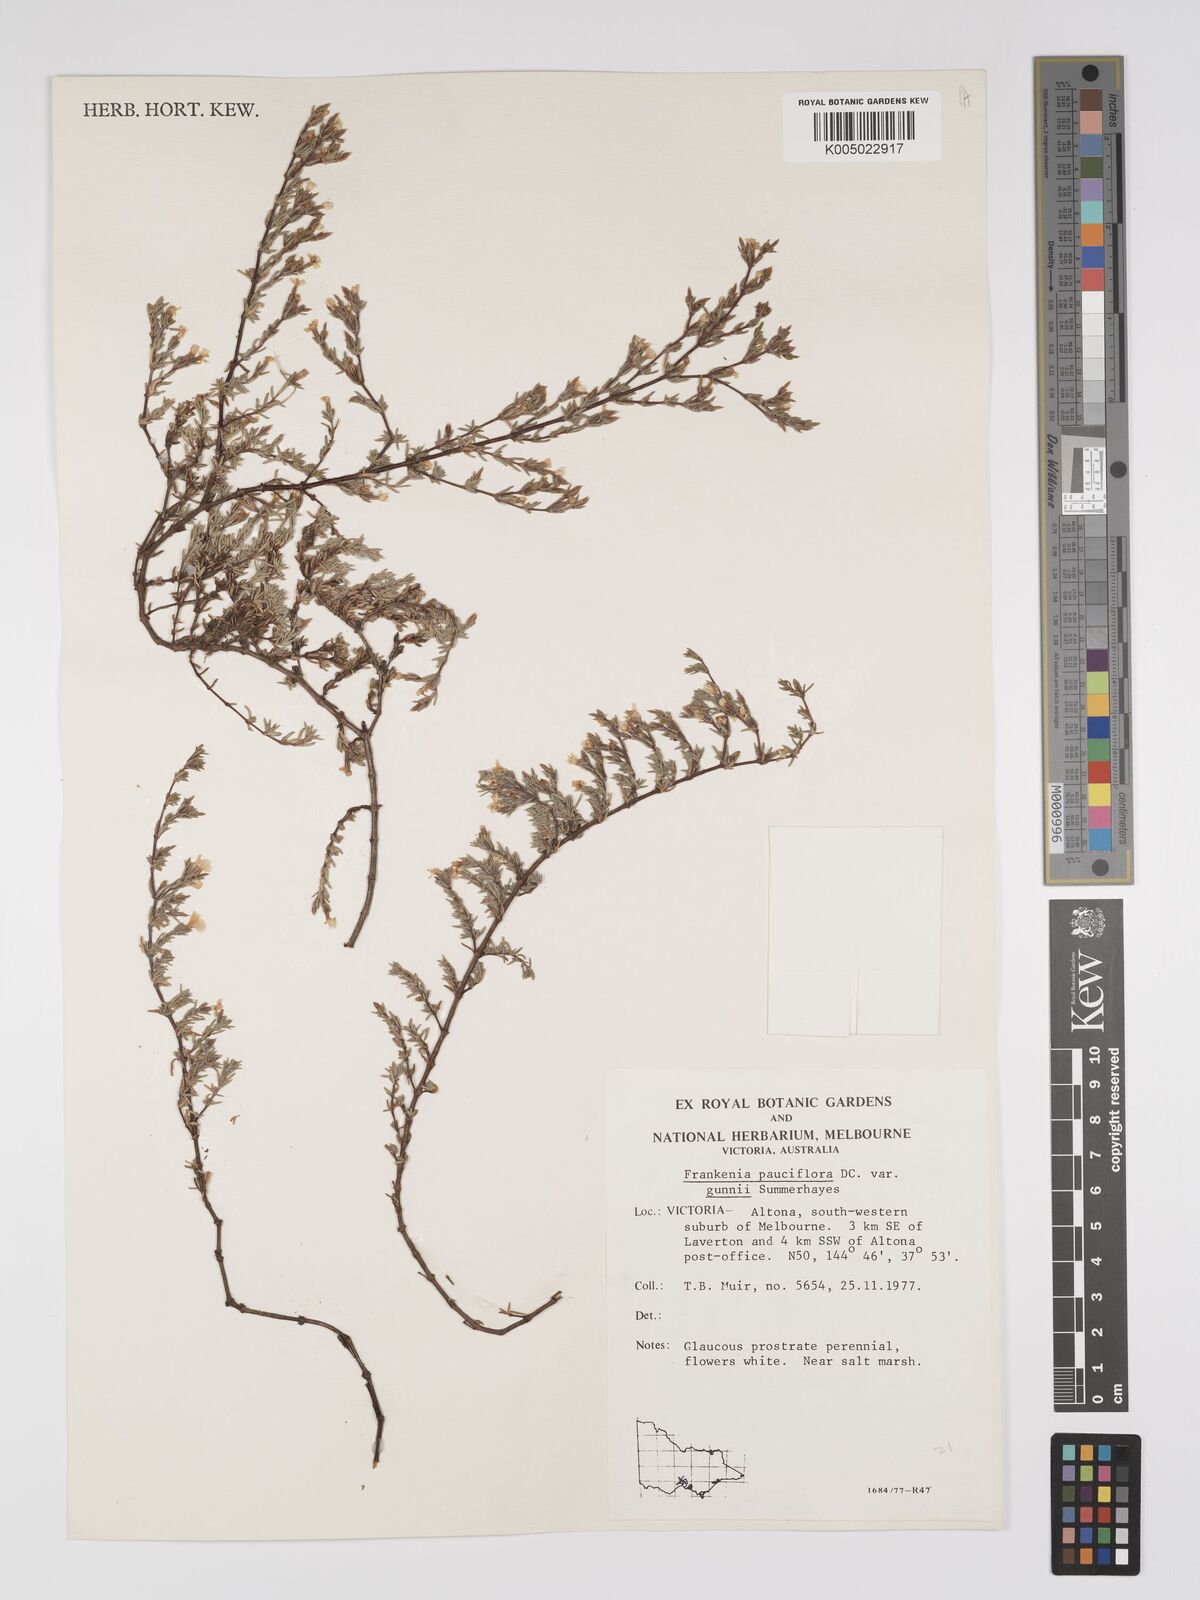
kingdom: Plantae
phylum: Tracheophyta
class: Magnoliopsida
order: Caryophyllales
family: Frankeniaceae
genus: Frankenia
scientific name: Frankenia pauciflora
